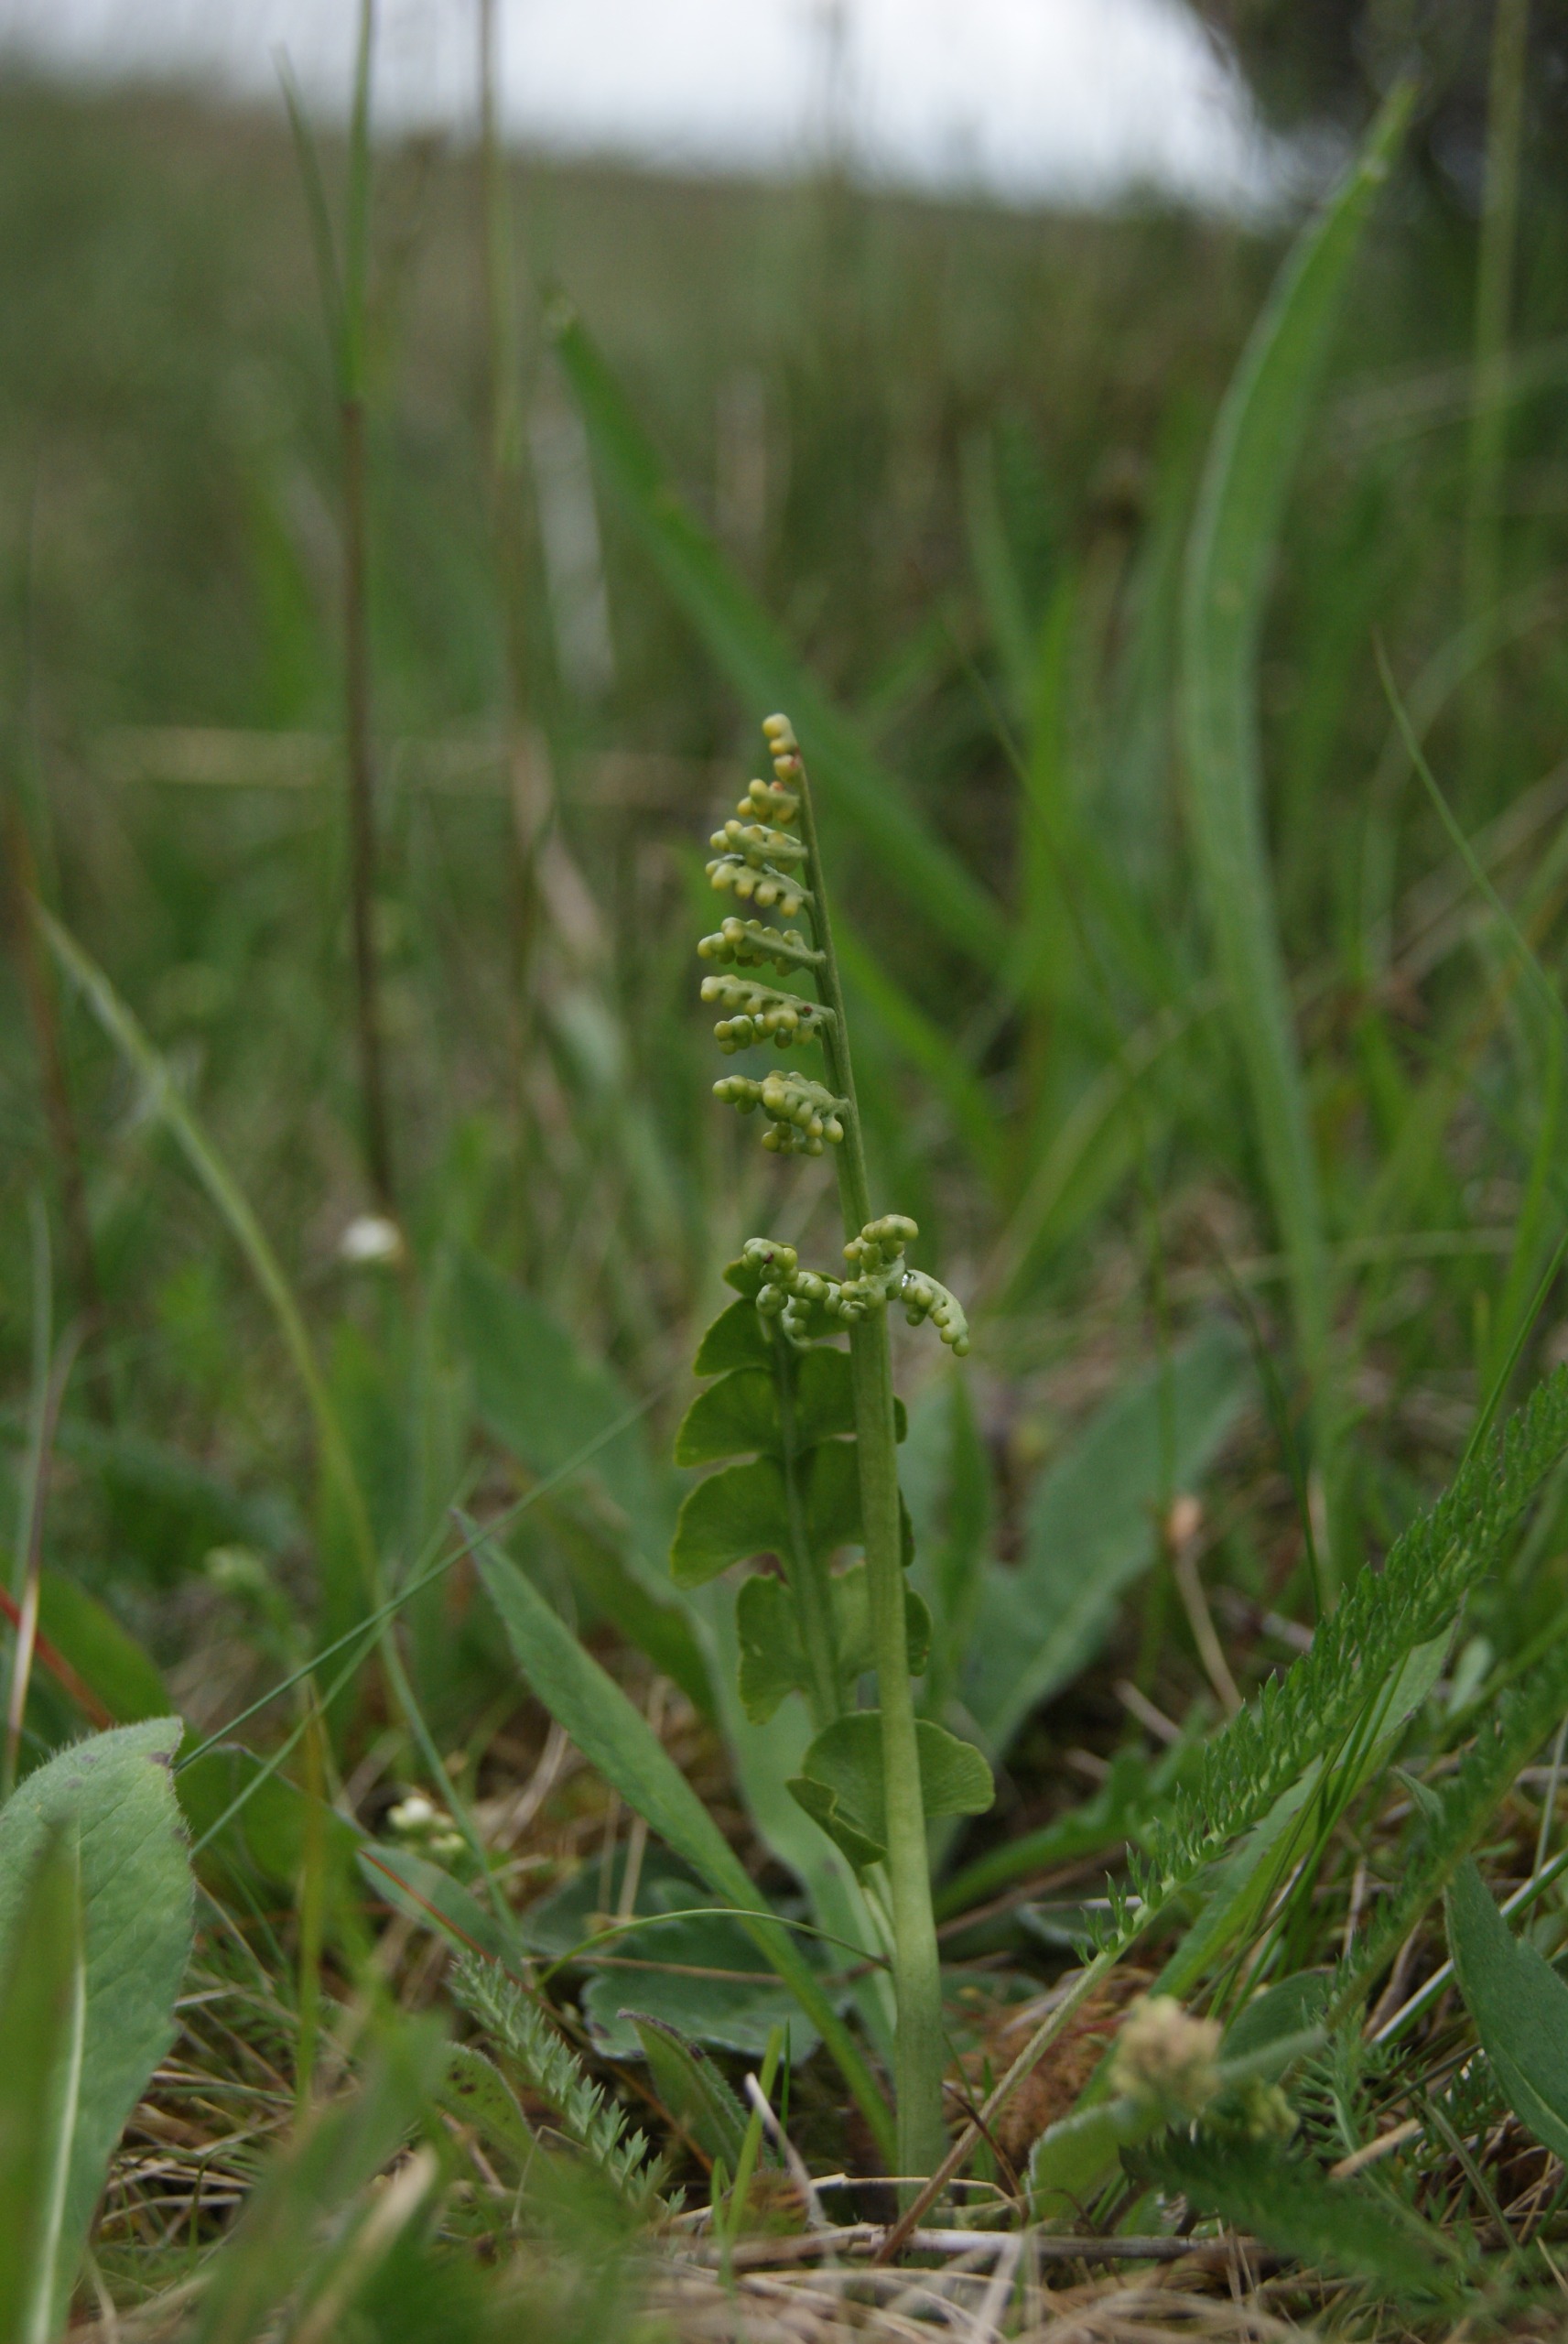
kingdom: Plantae
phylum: Tracheophyta
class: Polypodiopsida
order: Ophioglossales
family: Ophioglossaceae
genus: Botrychium
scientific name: Botrychium lunaria
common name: Almindelig månerude
